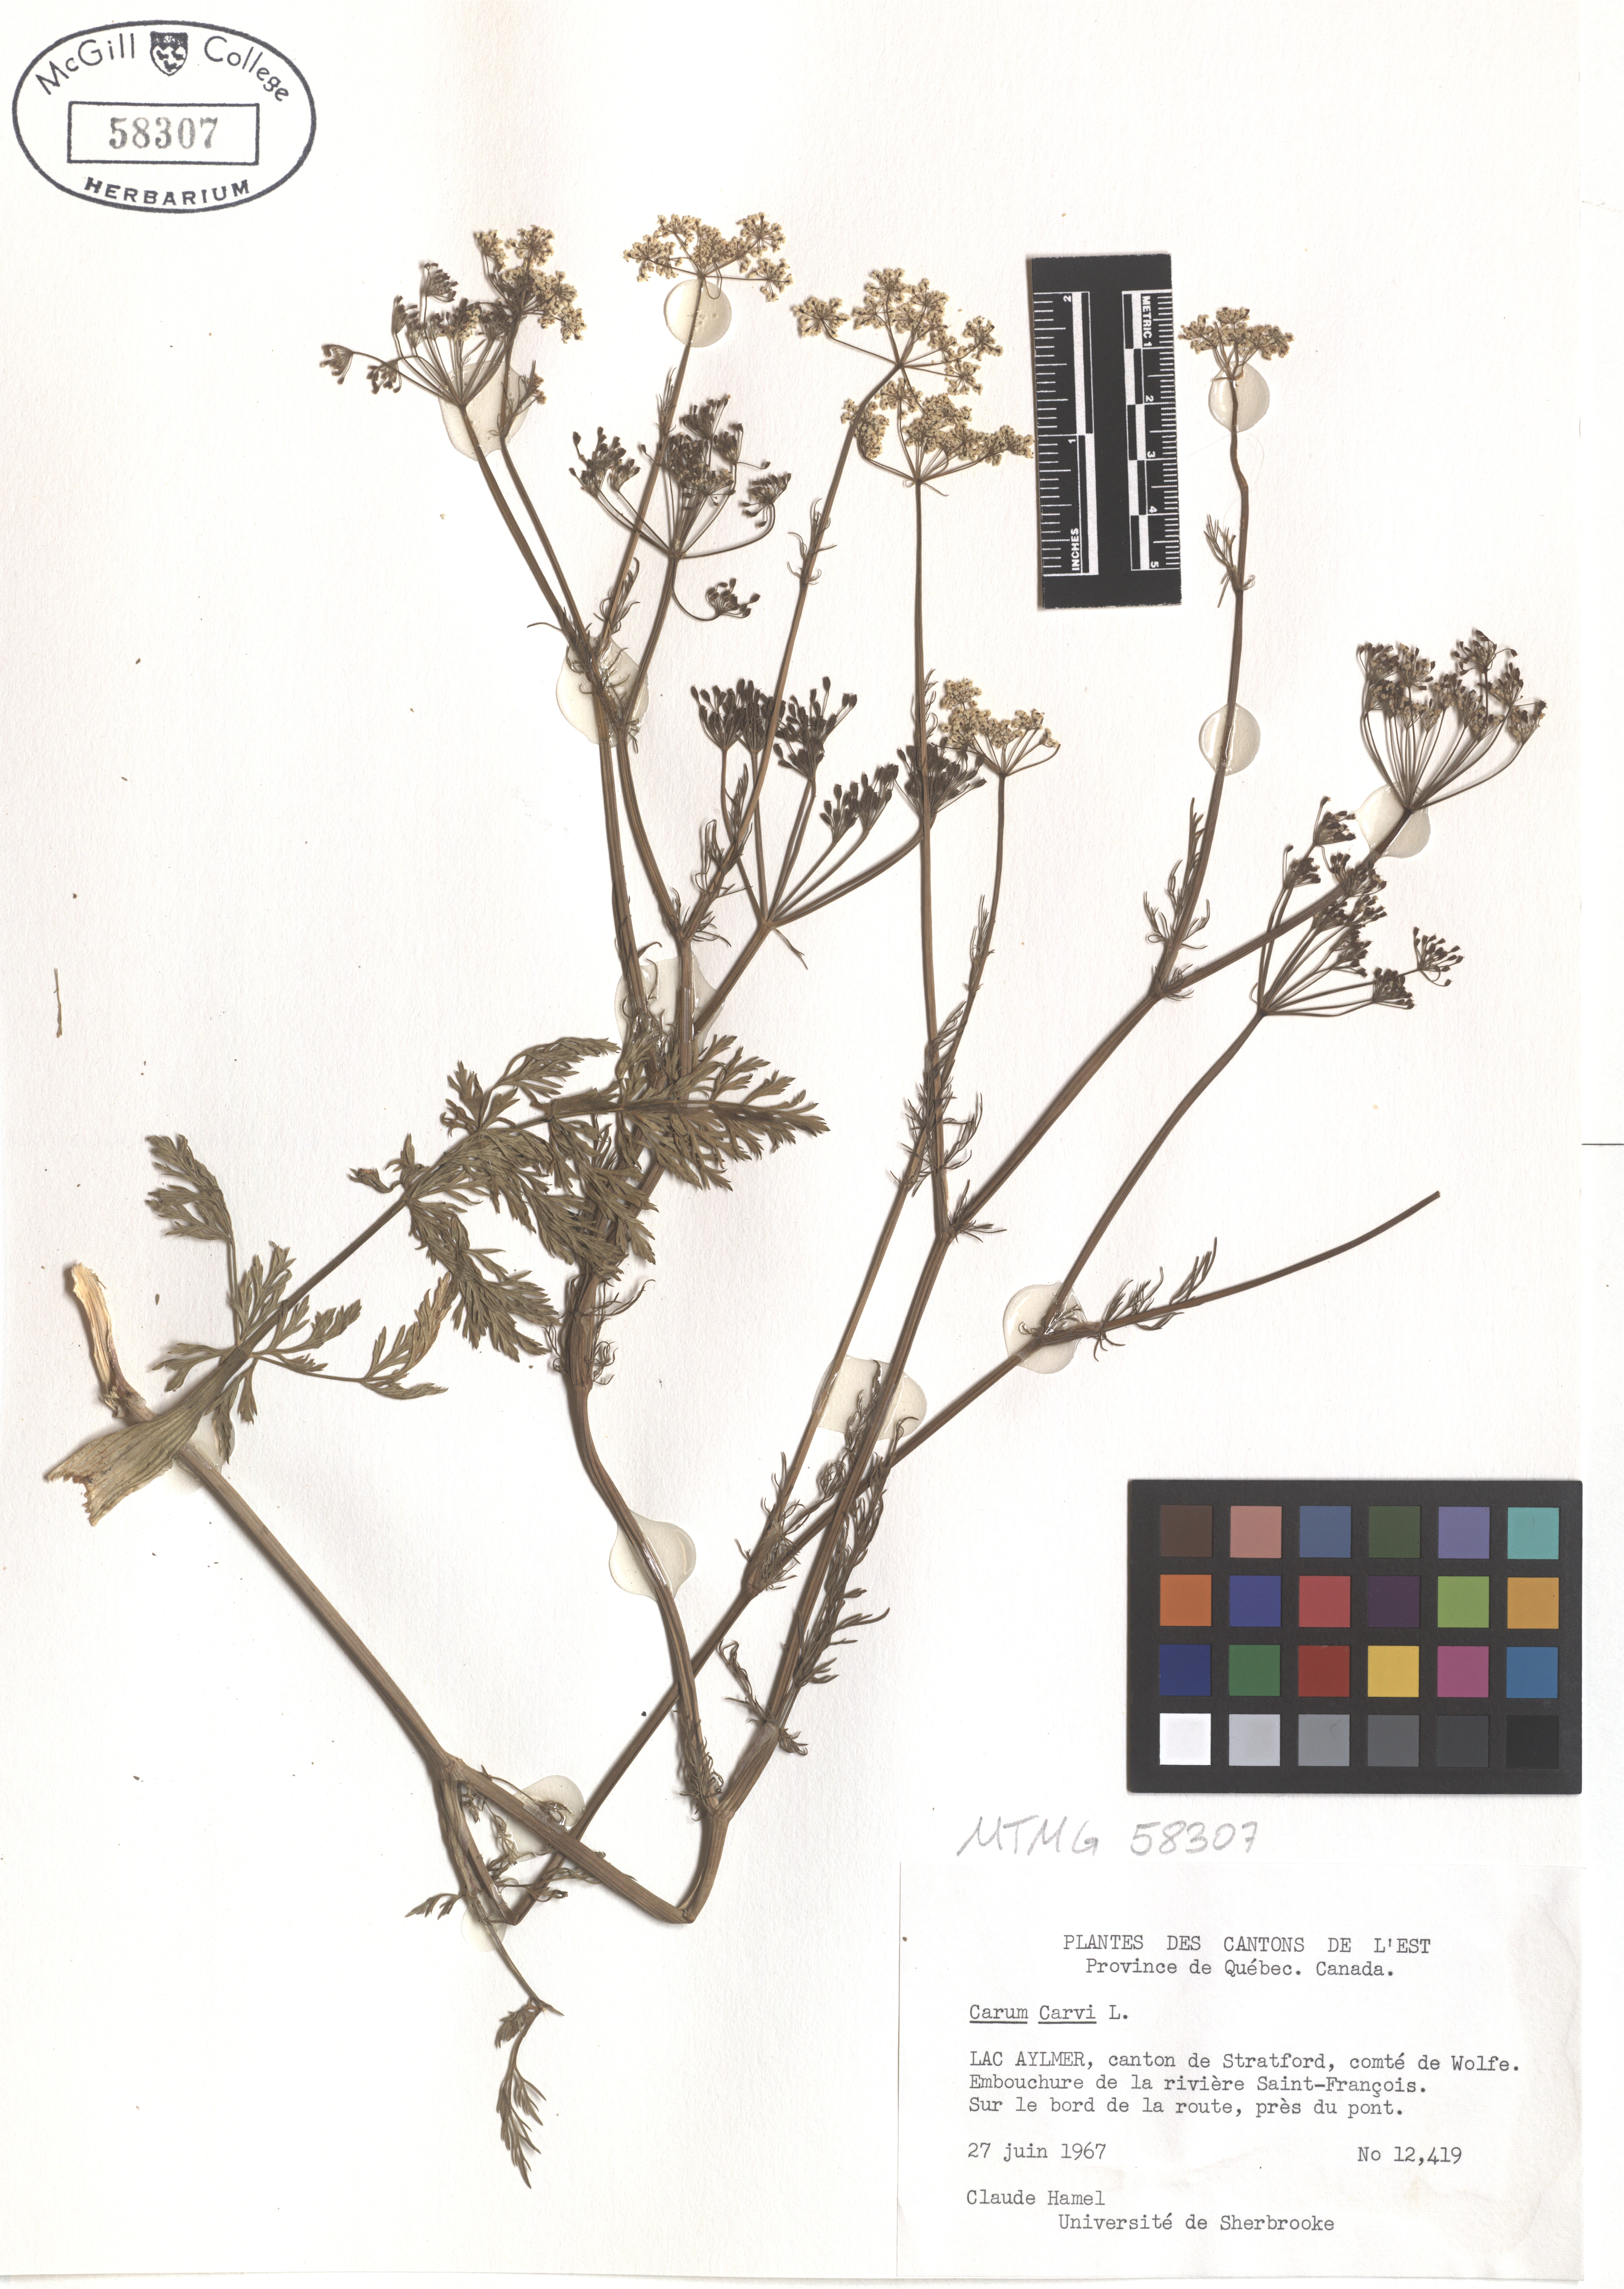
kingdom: Plantae
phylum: Tracheophyta
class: Magnoliopsida
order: Apiales
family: Apiaceae
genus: Carum
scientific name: Carum carvi
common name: Caraway
